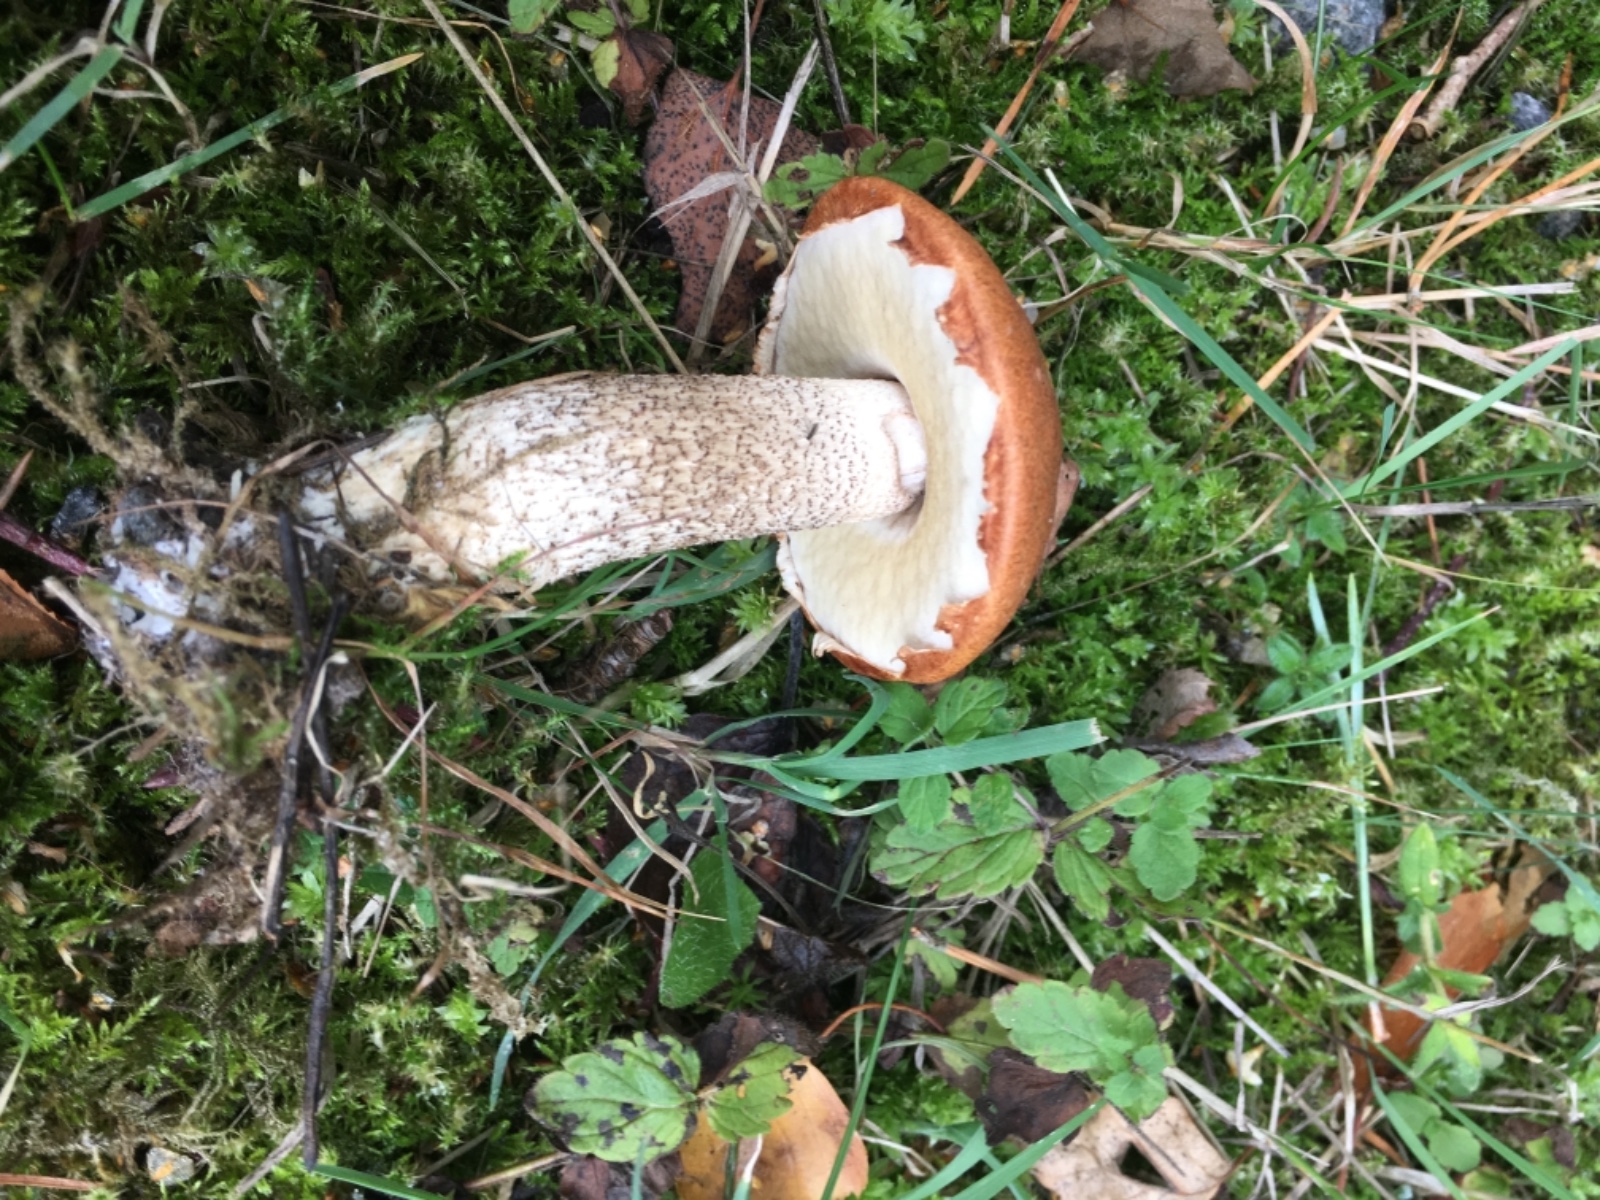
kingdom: Fungi
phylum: Basidiomycota
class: Agaricomycetes
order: Boletales
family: Boletaceae
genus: Leccinum
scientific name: Leccinum versipelle
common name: orange skælrørhat
